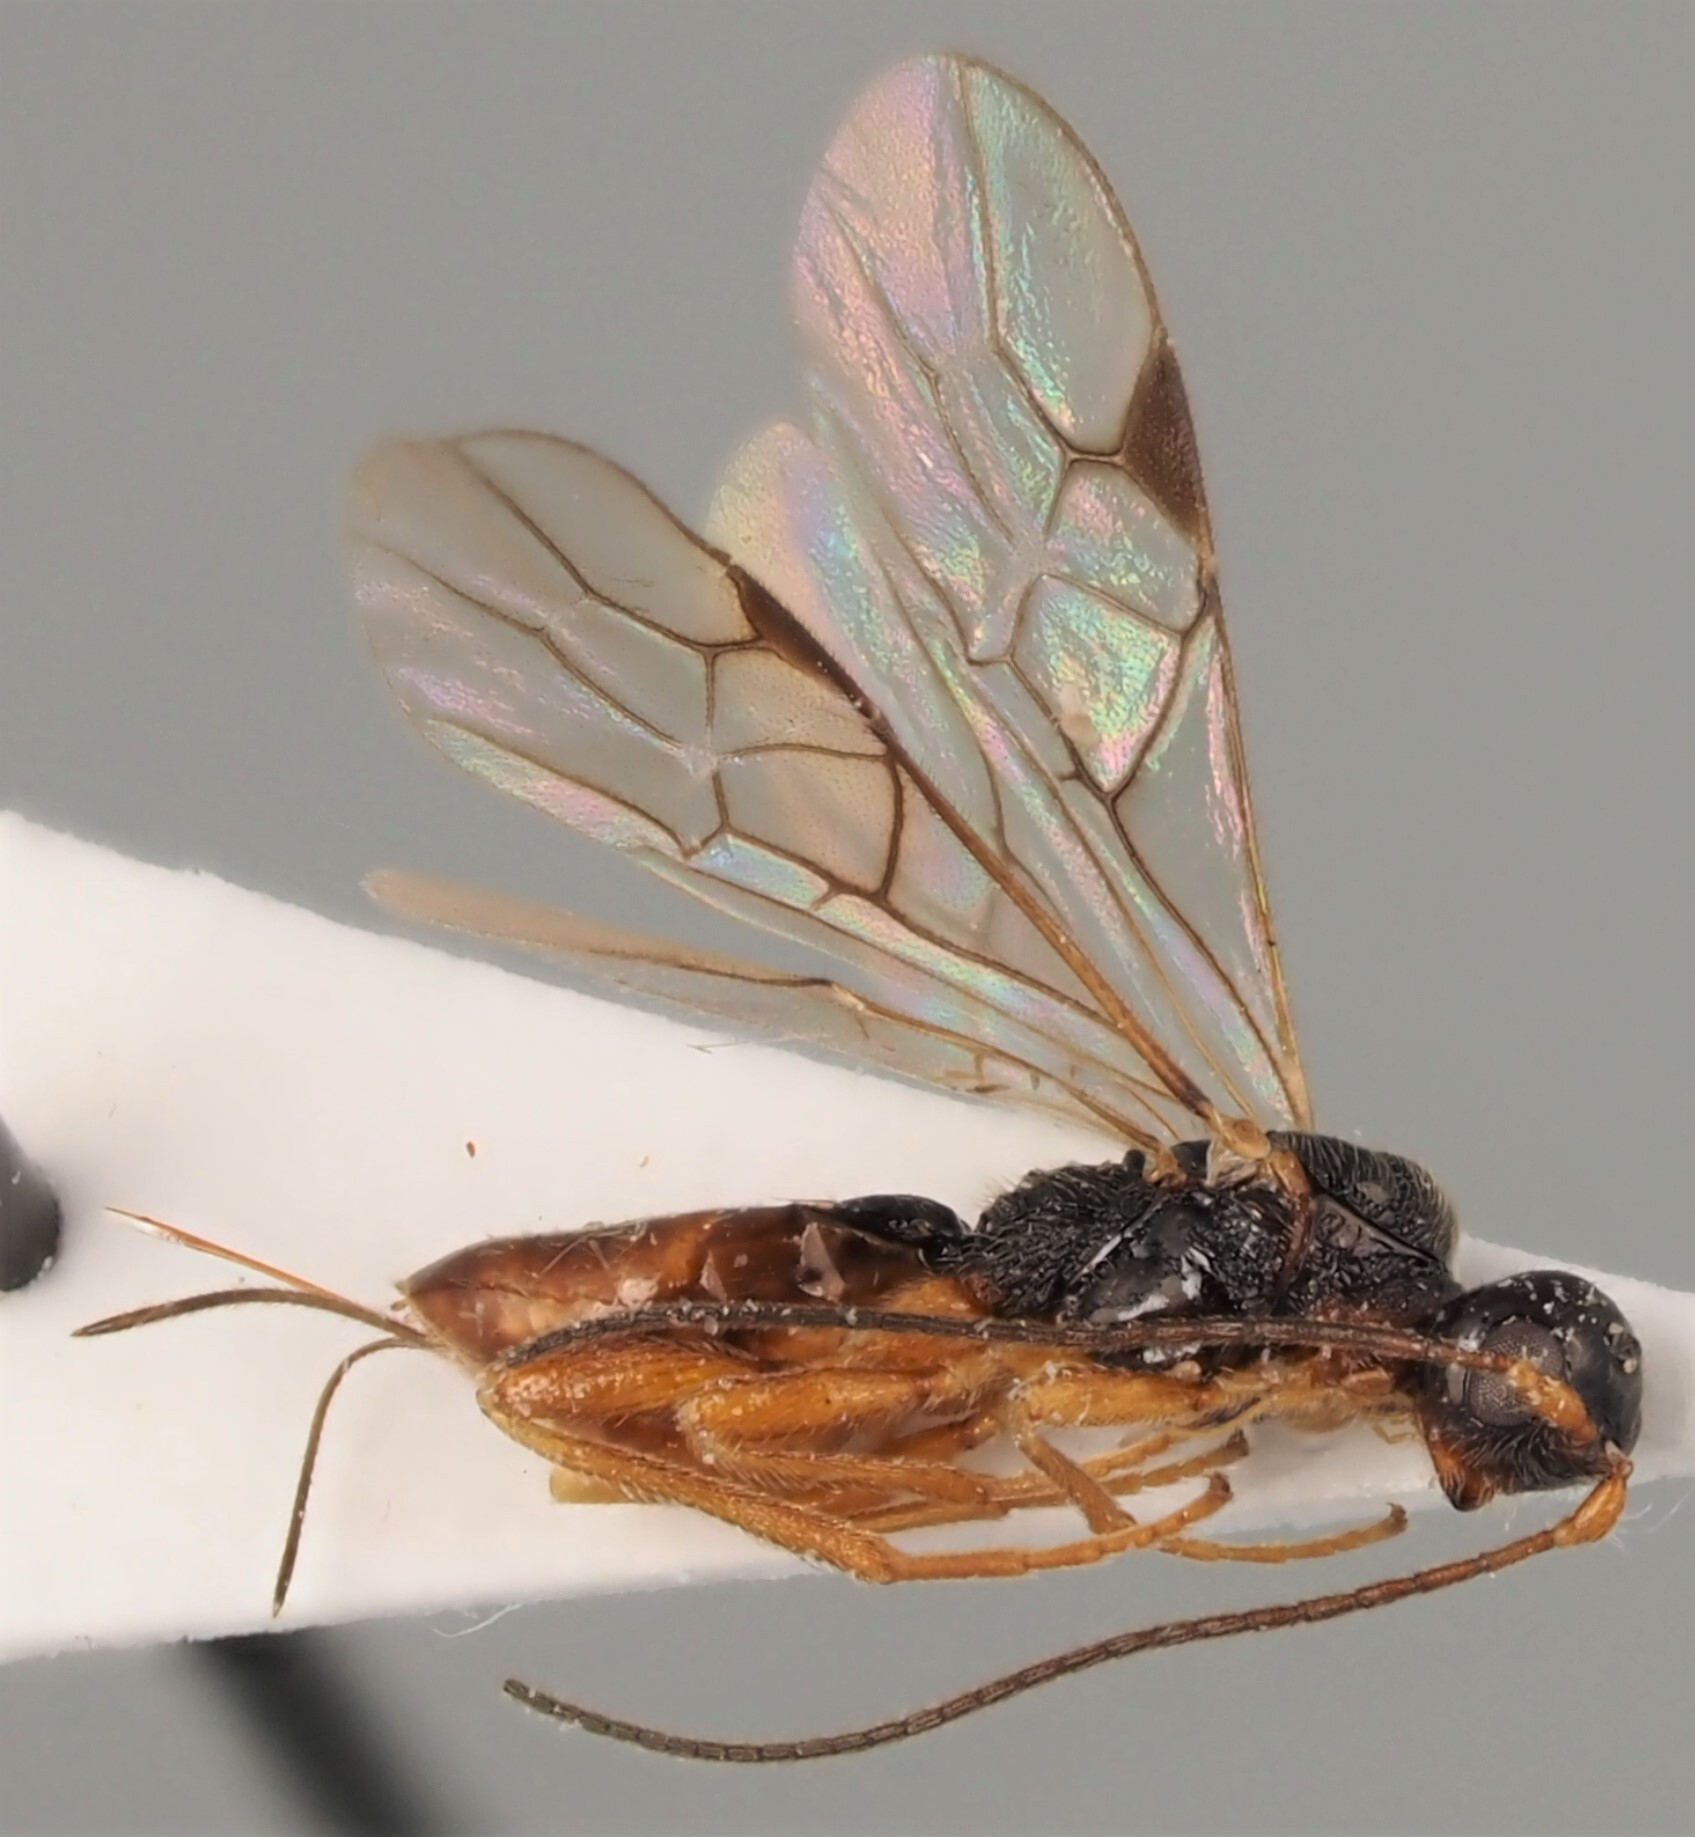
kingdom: Animalia
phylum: Arthropoda
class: Insecta
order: Hymenoptera
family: Braconidae
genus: Ontsira
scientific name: Ontsira antica
